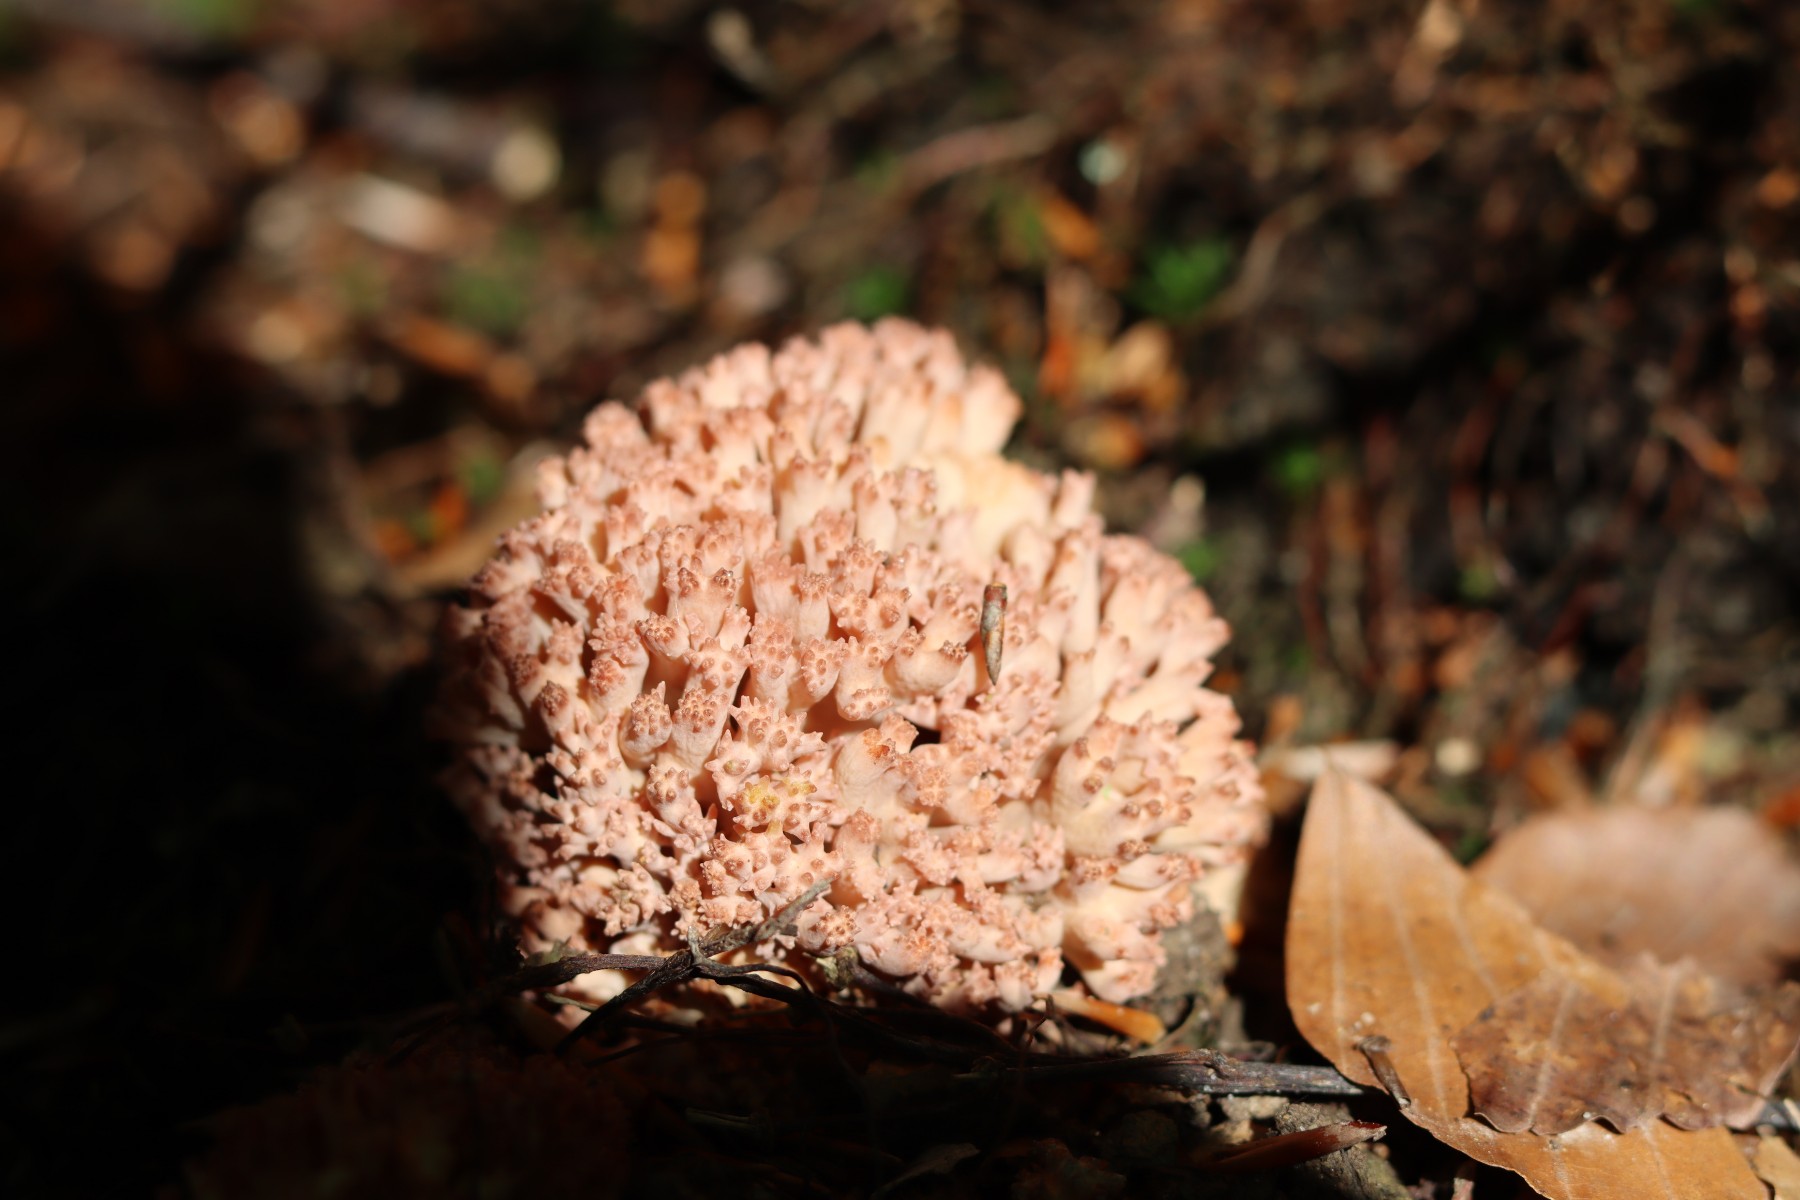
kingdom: Fungi
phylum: Basidiomycota
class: Agaricomycetes
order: Gomphales
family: Gomphaceae
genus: Ramaria
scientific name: Ramaria botrytis
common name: drue-koralsvamp
